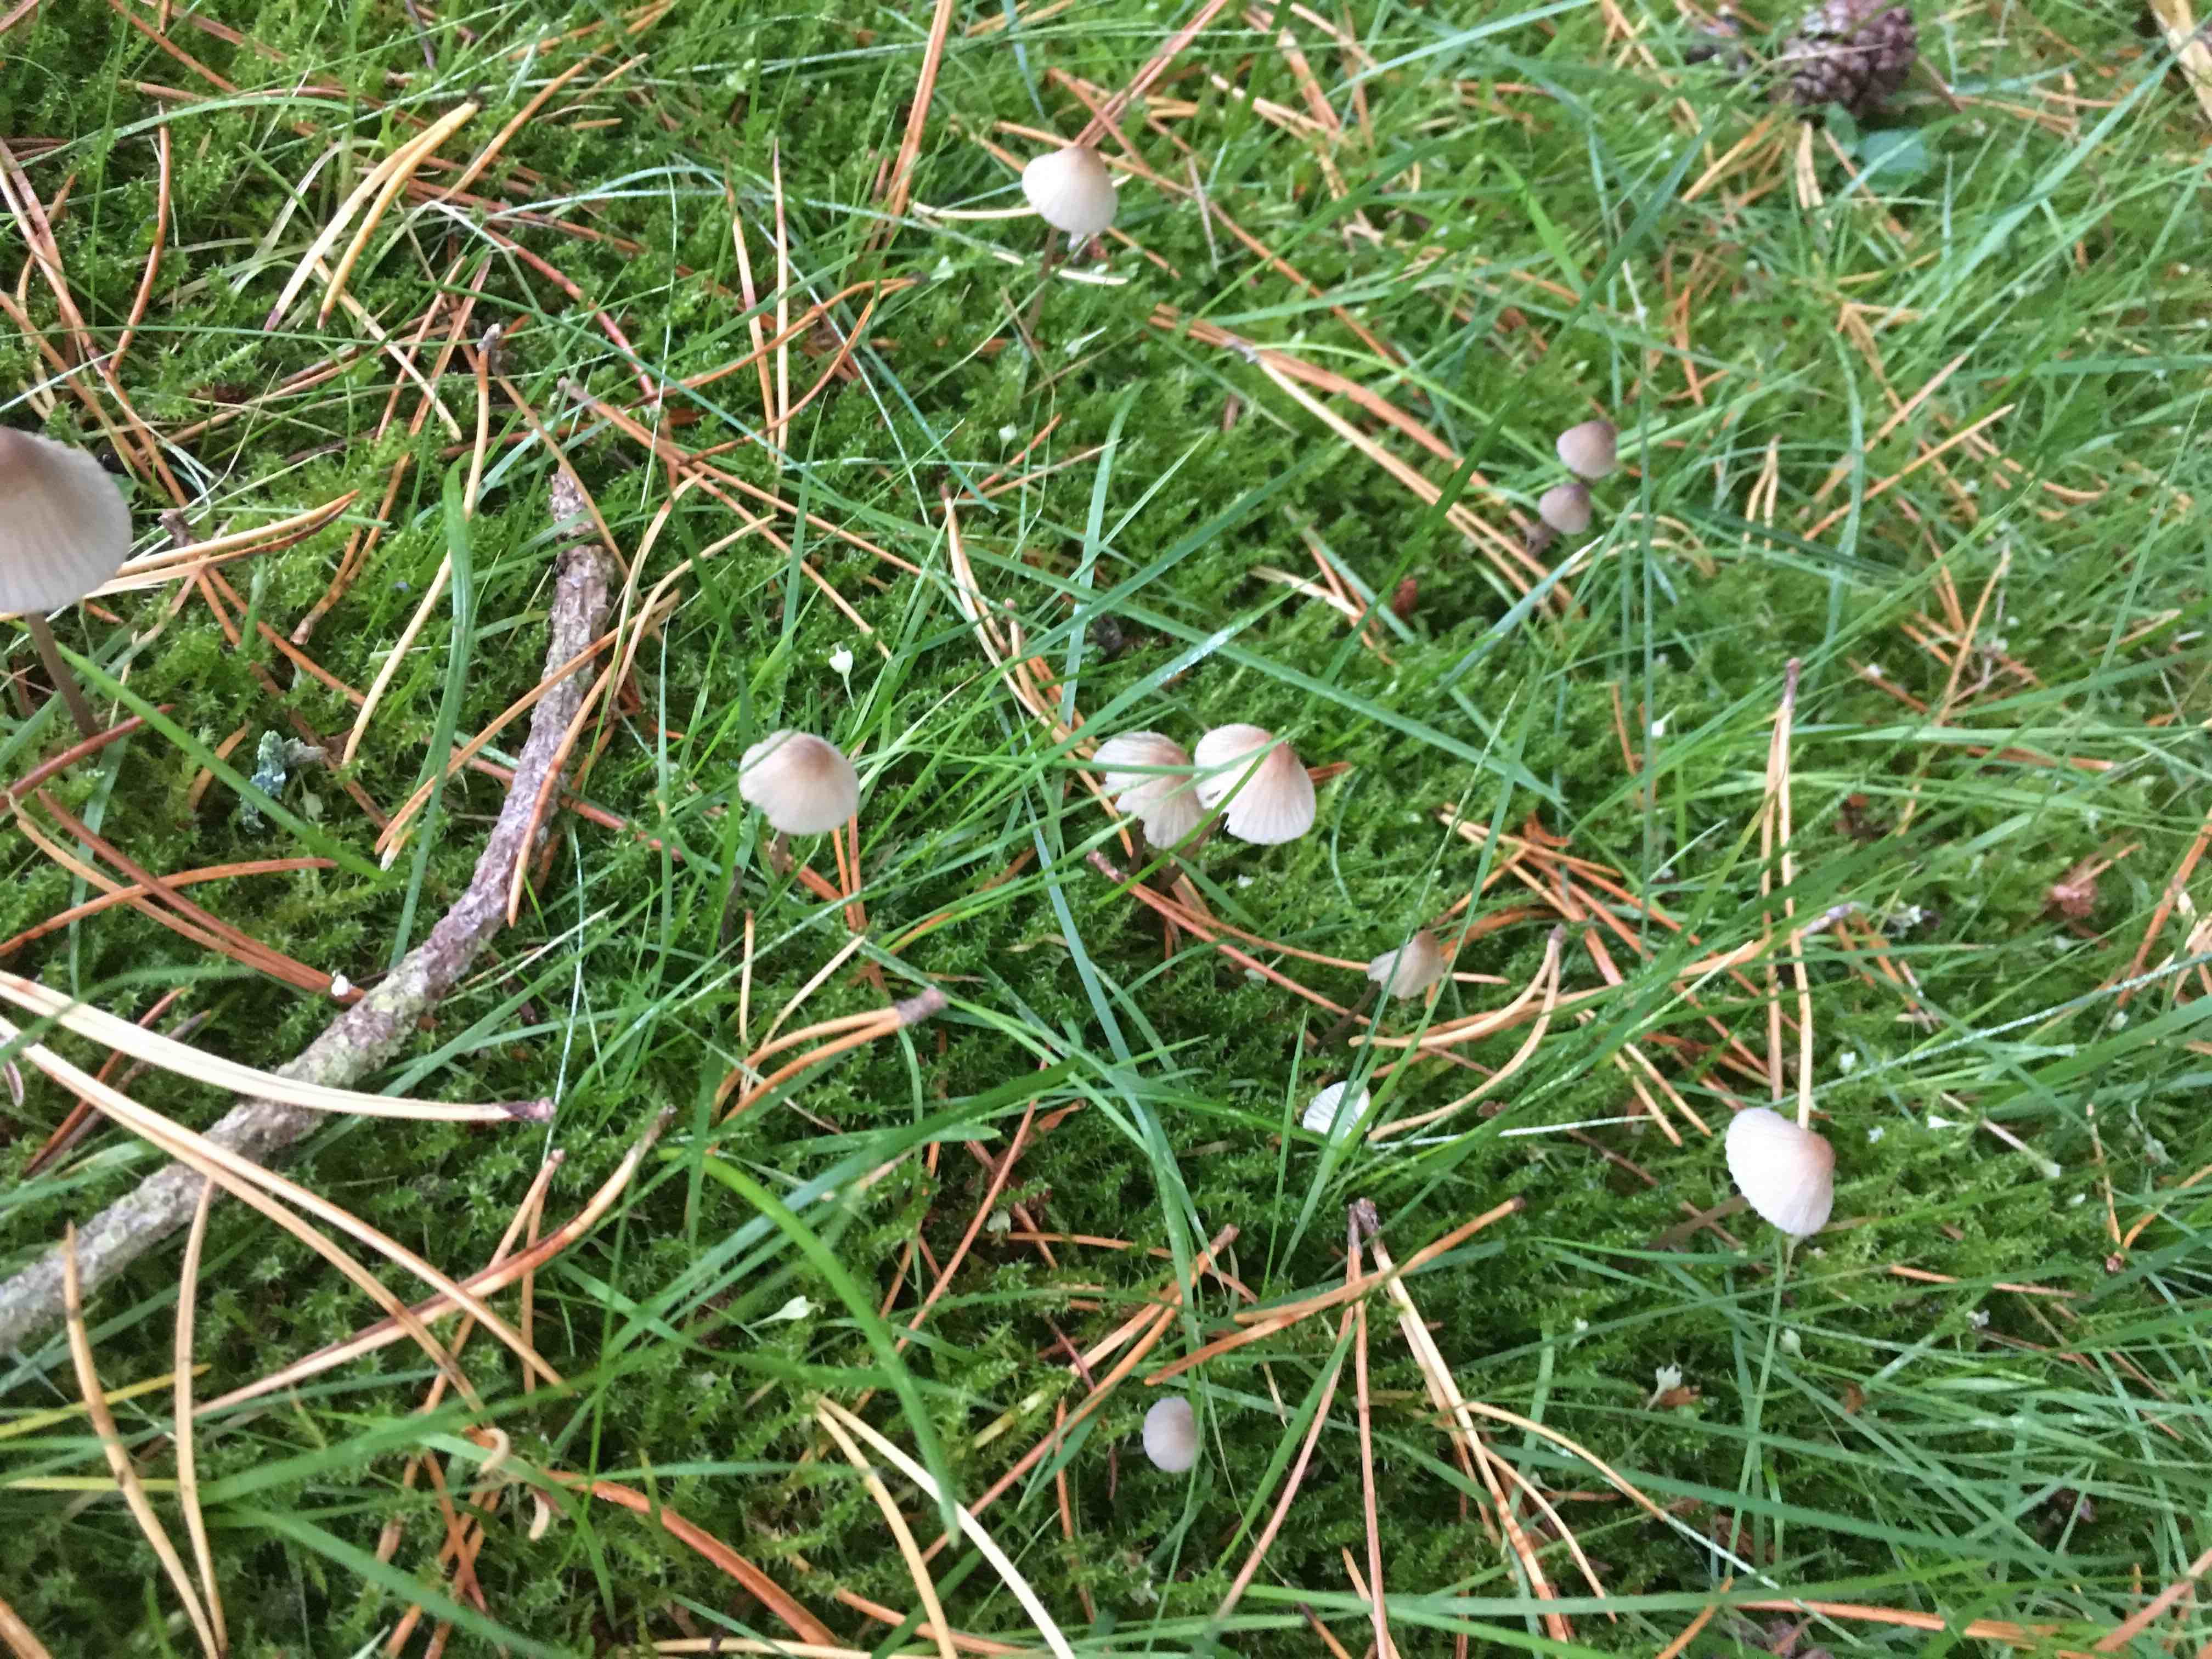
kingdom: Fungi
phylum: Basidiomycota
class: Agaricomycetes
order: Agaricales
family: Mycenaceae
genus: Mycena
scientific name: Mycena
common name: huesvamp
